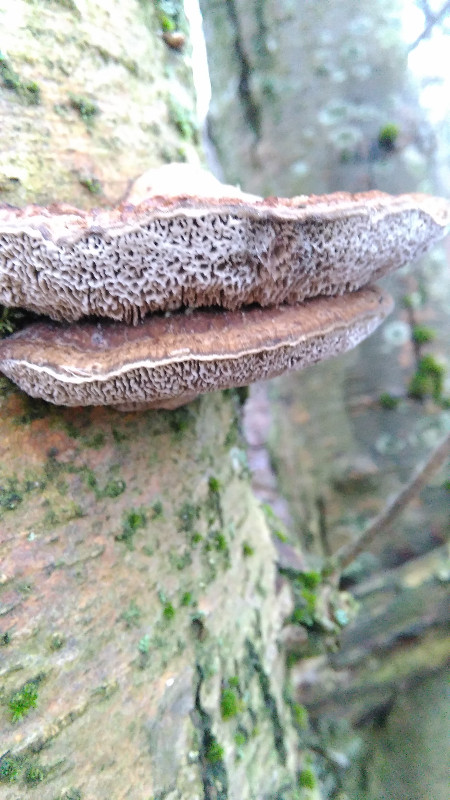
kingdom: Fungi
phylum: Basidiomycota
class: Agaricomycetes
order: Polyporales
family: Polyporaceae
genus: Daedaleopsis
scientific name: Daedaleopsis confragosa
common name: rødmende læderporesvamp
